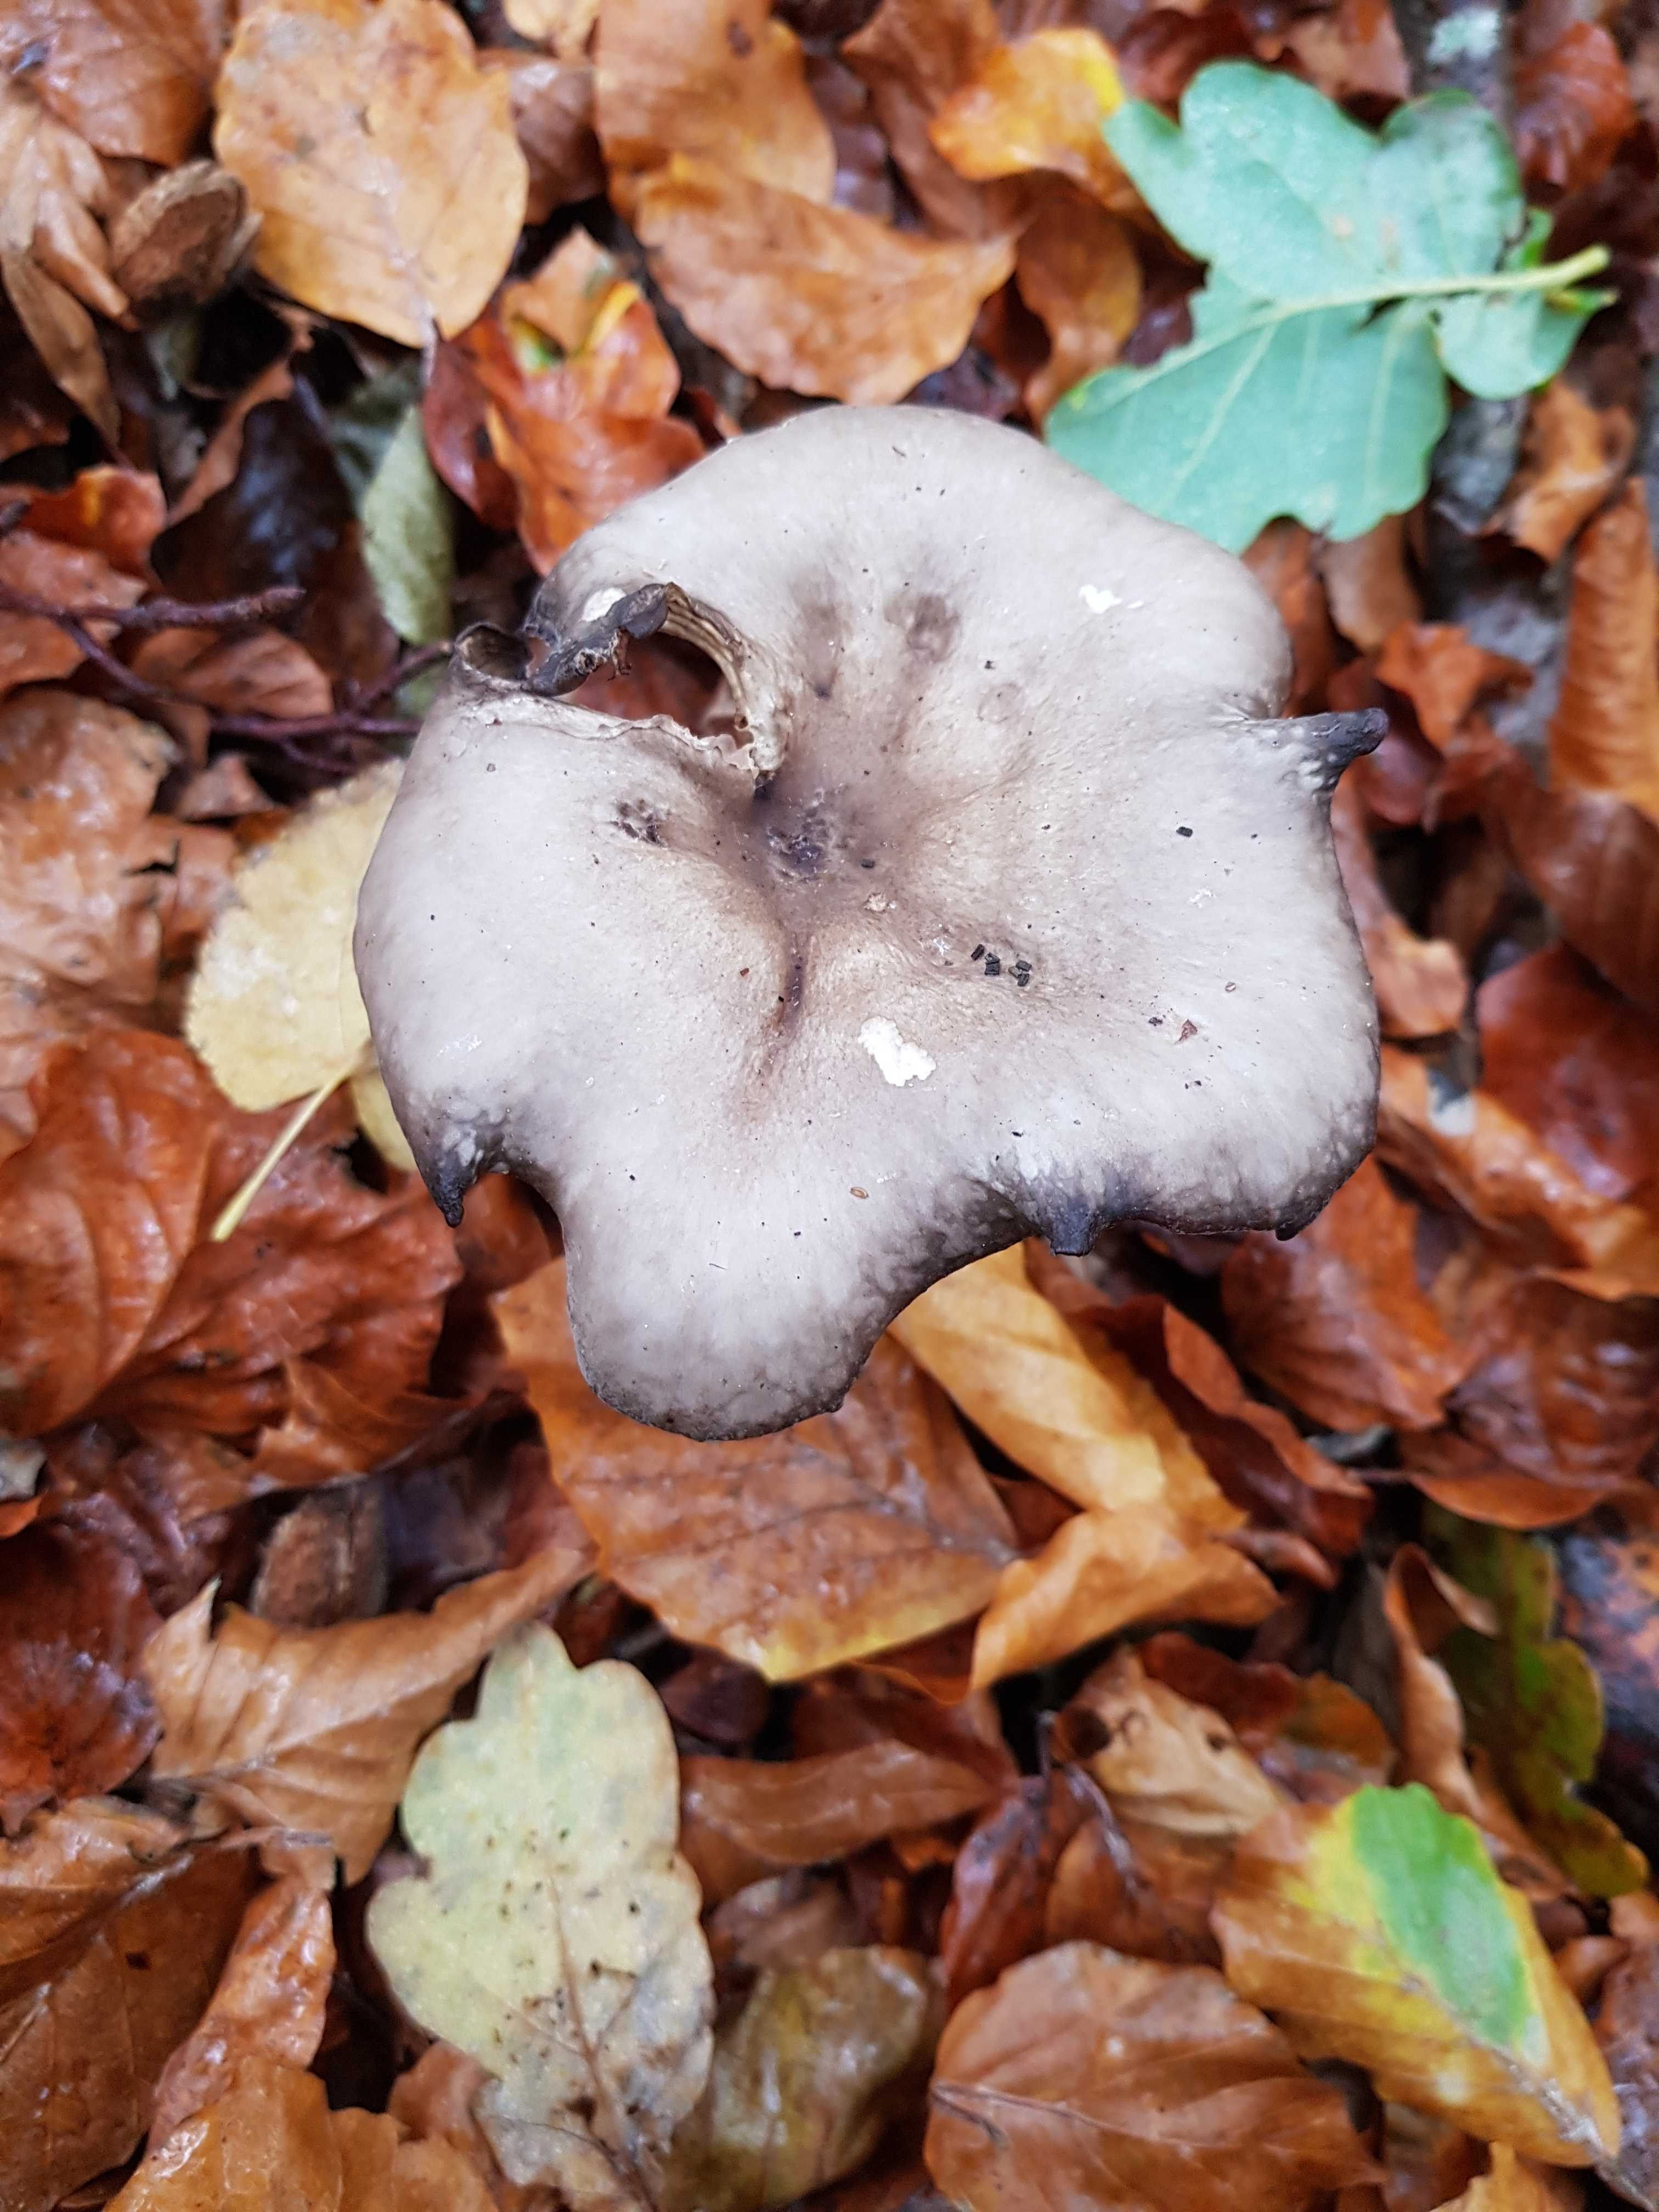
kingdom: Fungi
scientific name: Fungi
